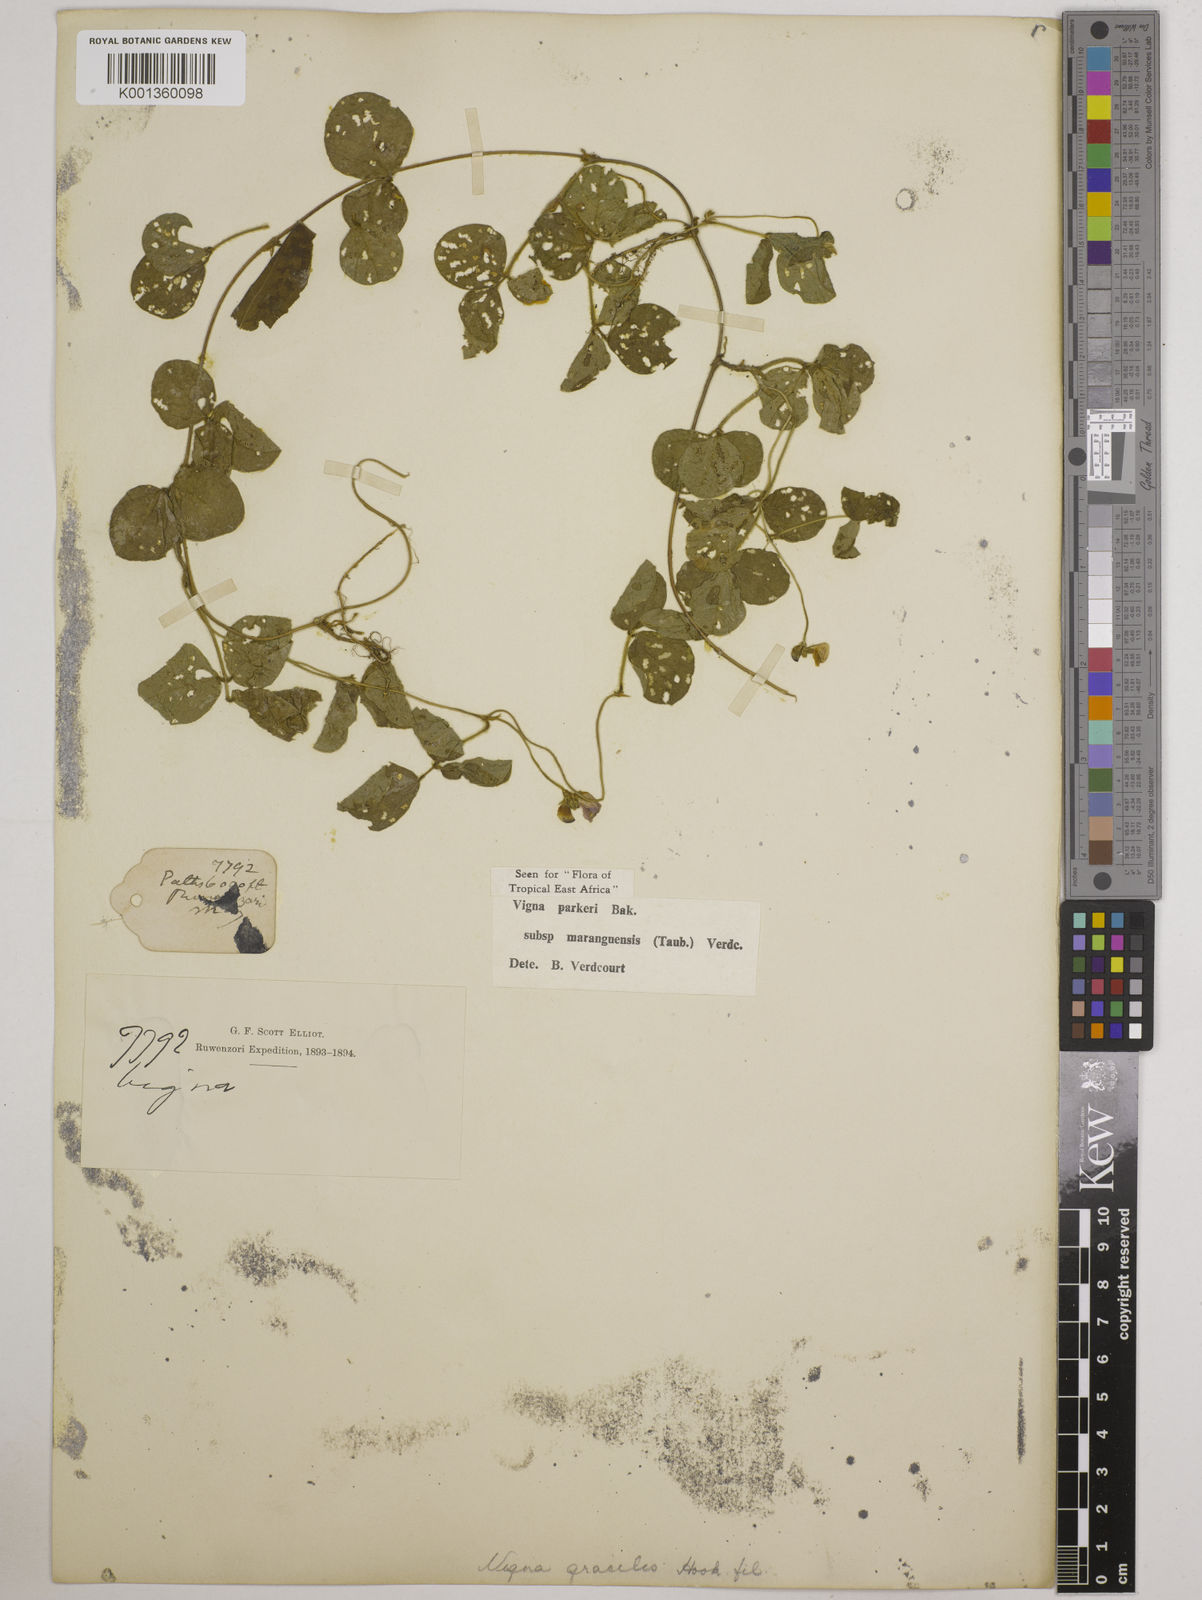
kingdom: Plantae
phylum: Tracheophyta
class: Magnoliopsida
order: Fabales
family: Fabaceae
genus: Vigna
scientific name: Vigna parkeri
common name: Creeping vigna
